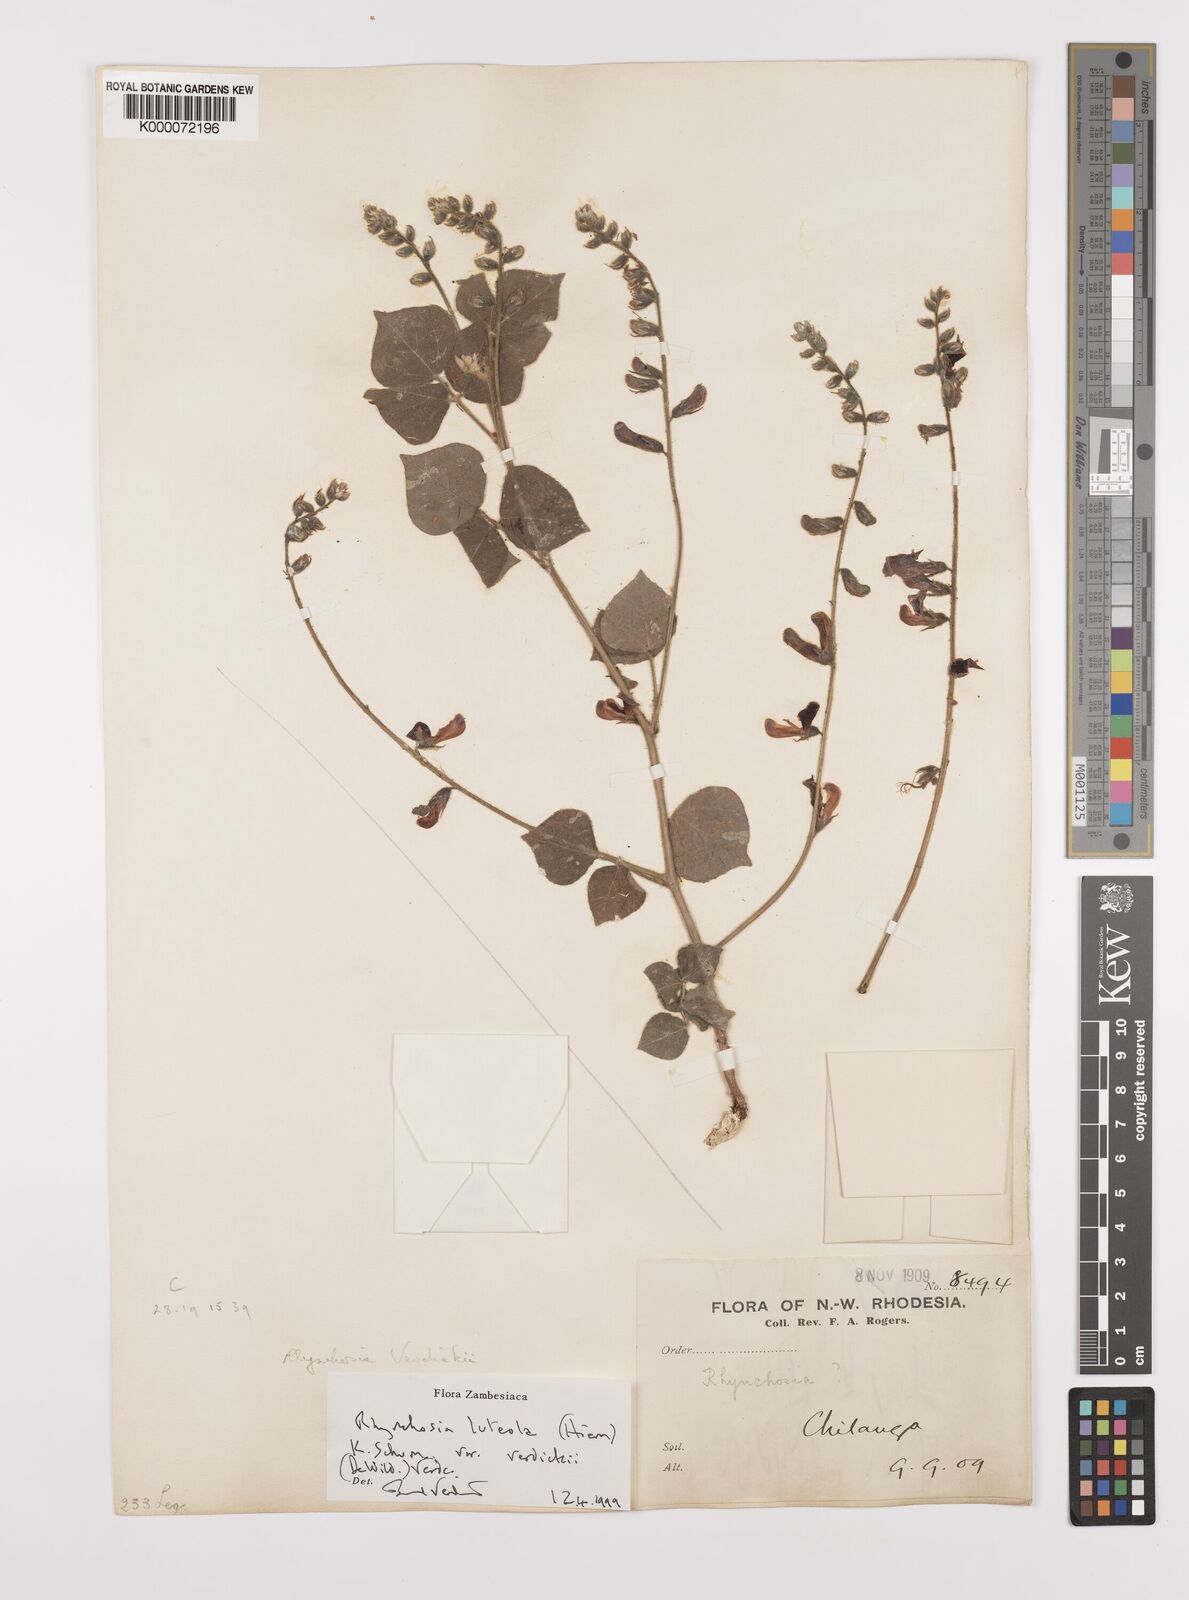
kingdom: Plantae
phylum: Tracheophyta
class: Magnoliopsida
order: Fabales
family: Fabaceae
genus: Rhynchosia
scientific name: Rhynchosia luteola
